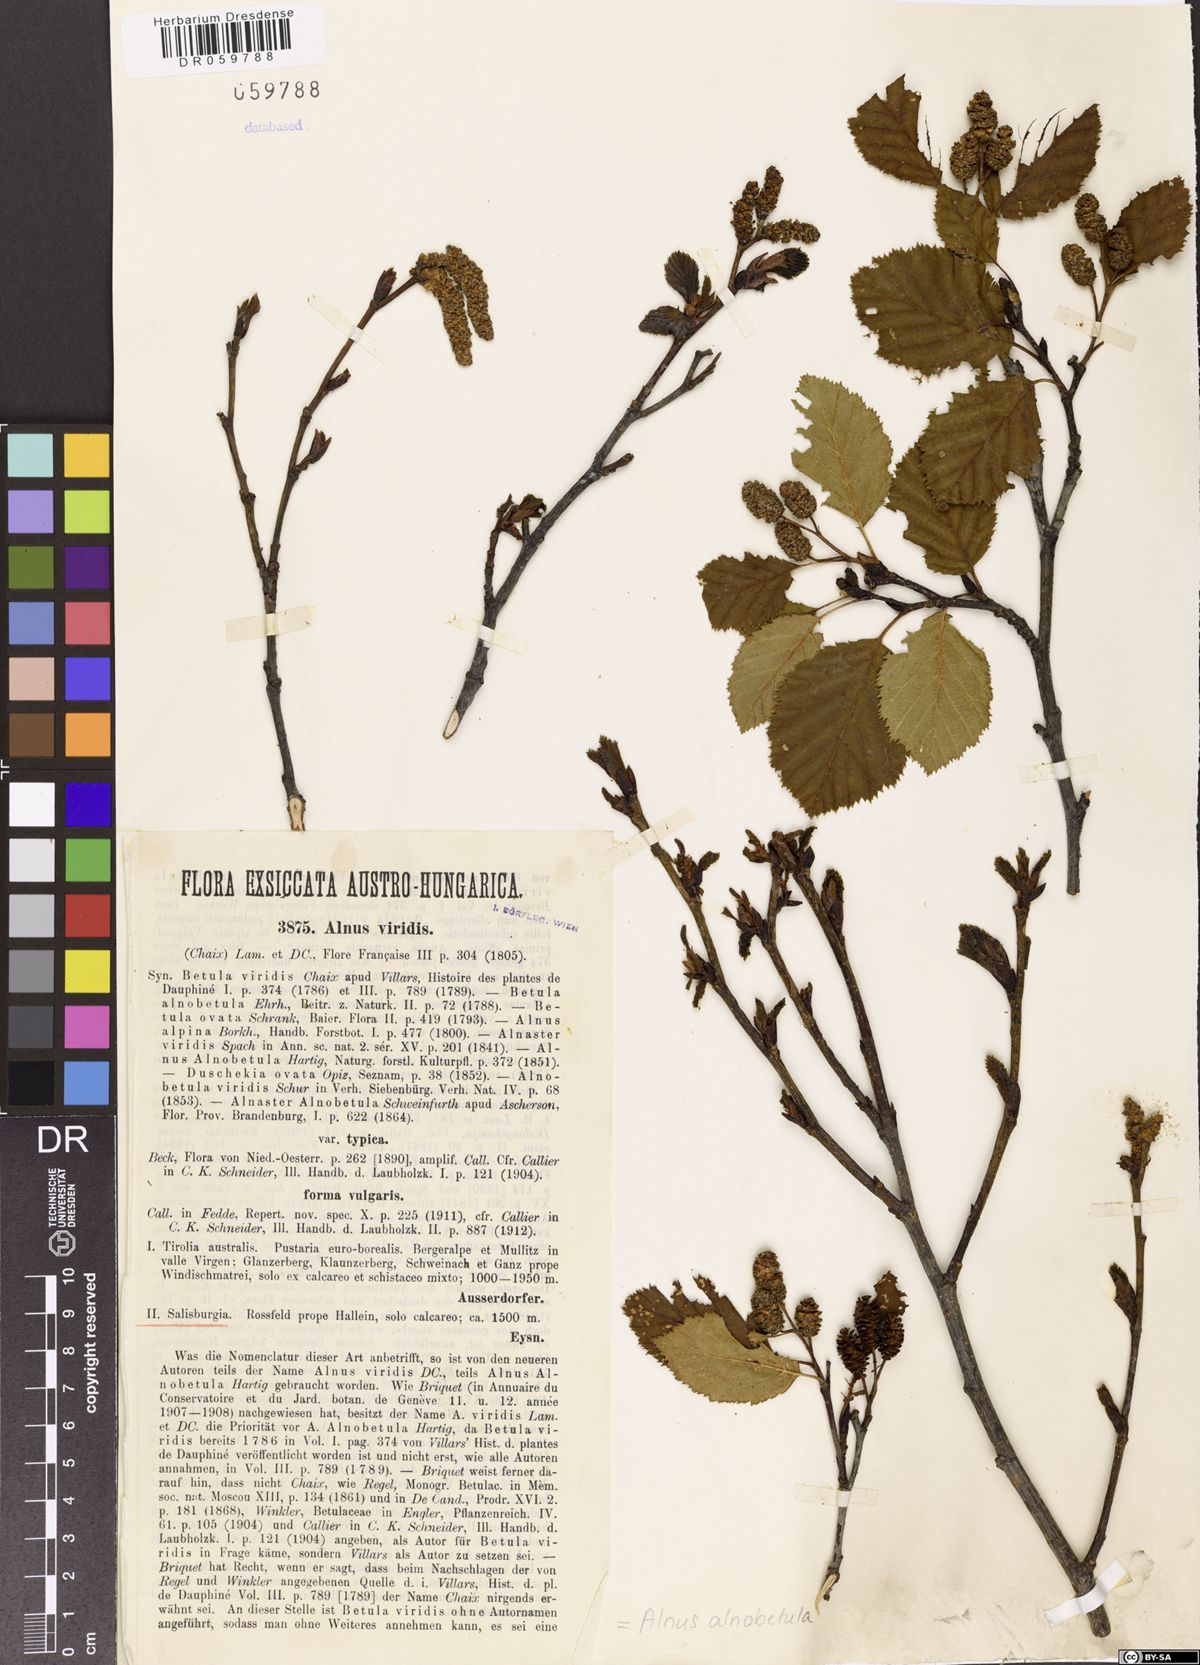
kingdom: Plantae
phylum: Tracheophyta
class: Magnoliopsida
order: Fagales
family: Betulaceae
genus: Alnus
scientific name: Alnus alnobetula
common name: Green alder
